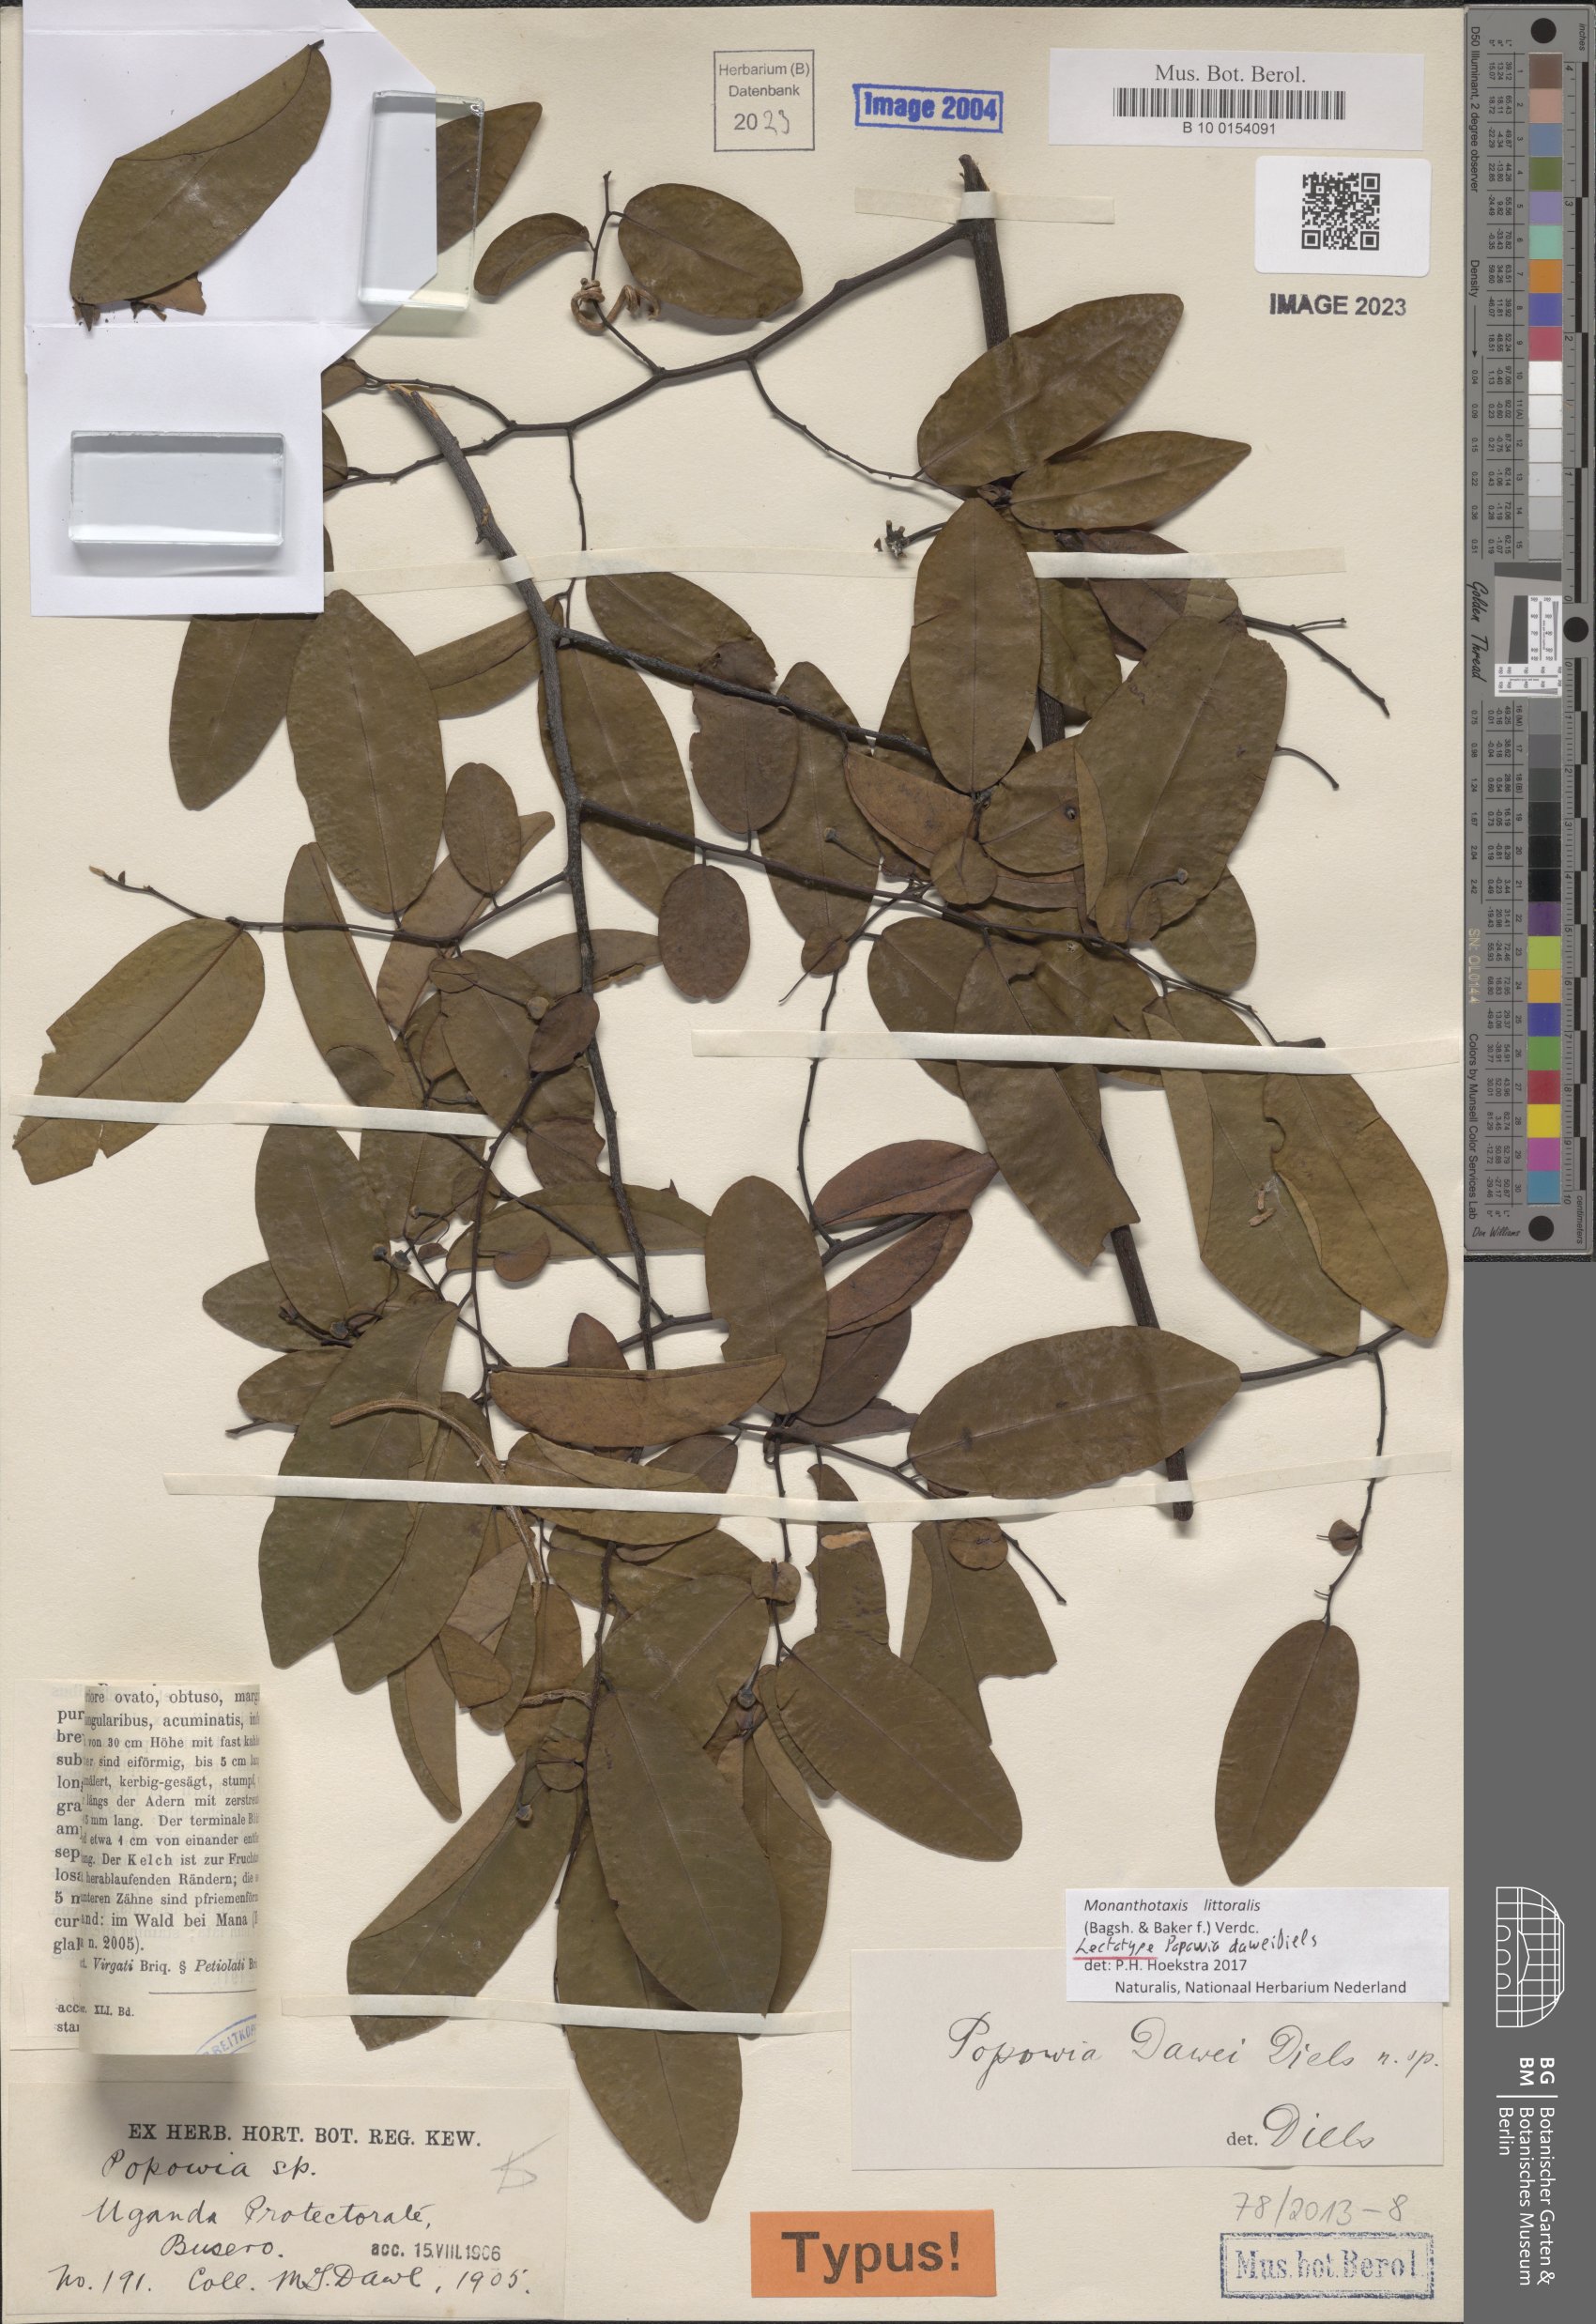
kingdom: Plantae
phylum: Tracheophyta
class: Magnoliopsida
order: Magnoliales
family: Annonaceae
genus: Monanthotaxis
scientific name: Monanthotaxis littoralis
